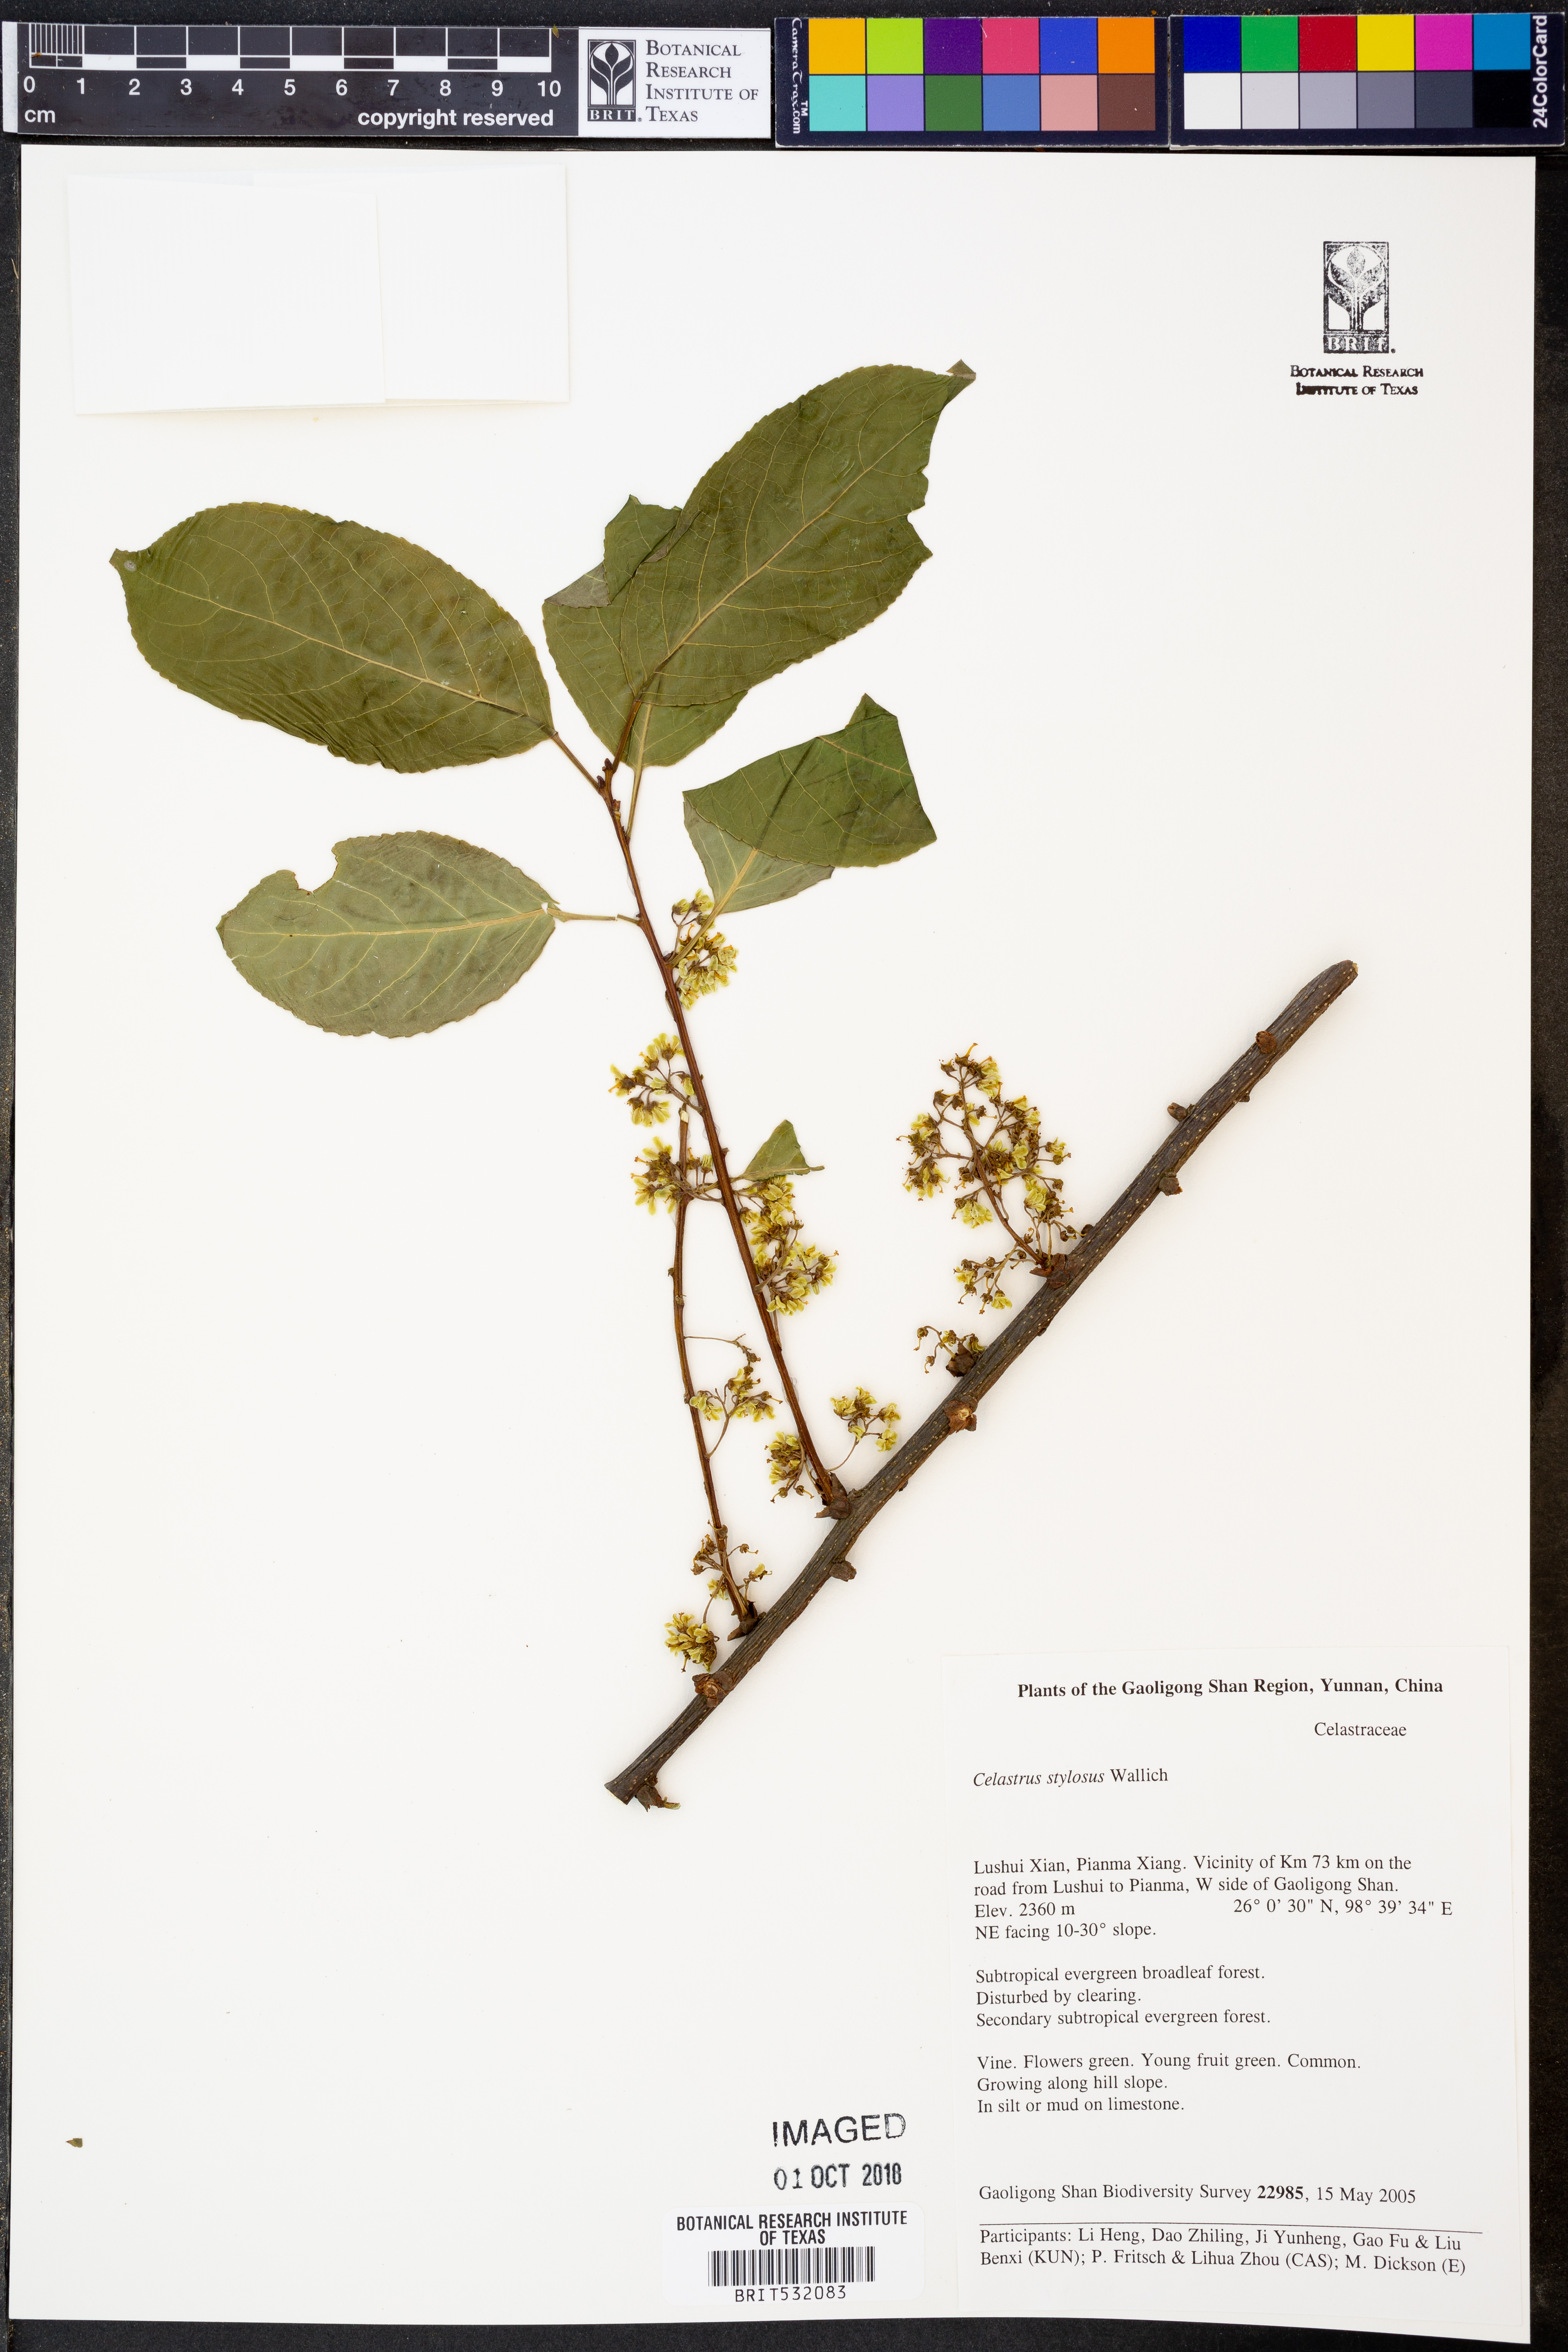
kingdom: Plantae
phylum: Tracheophyta
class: Magnoliopsida
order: Celastrales
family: Celastraceae
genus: Celastrus
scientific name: Celastrus stylosus
